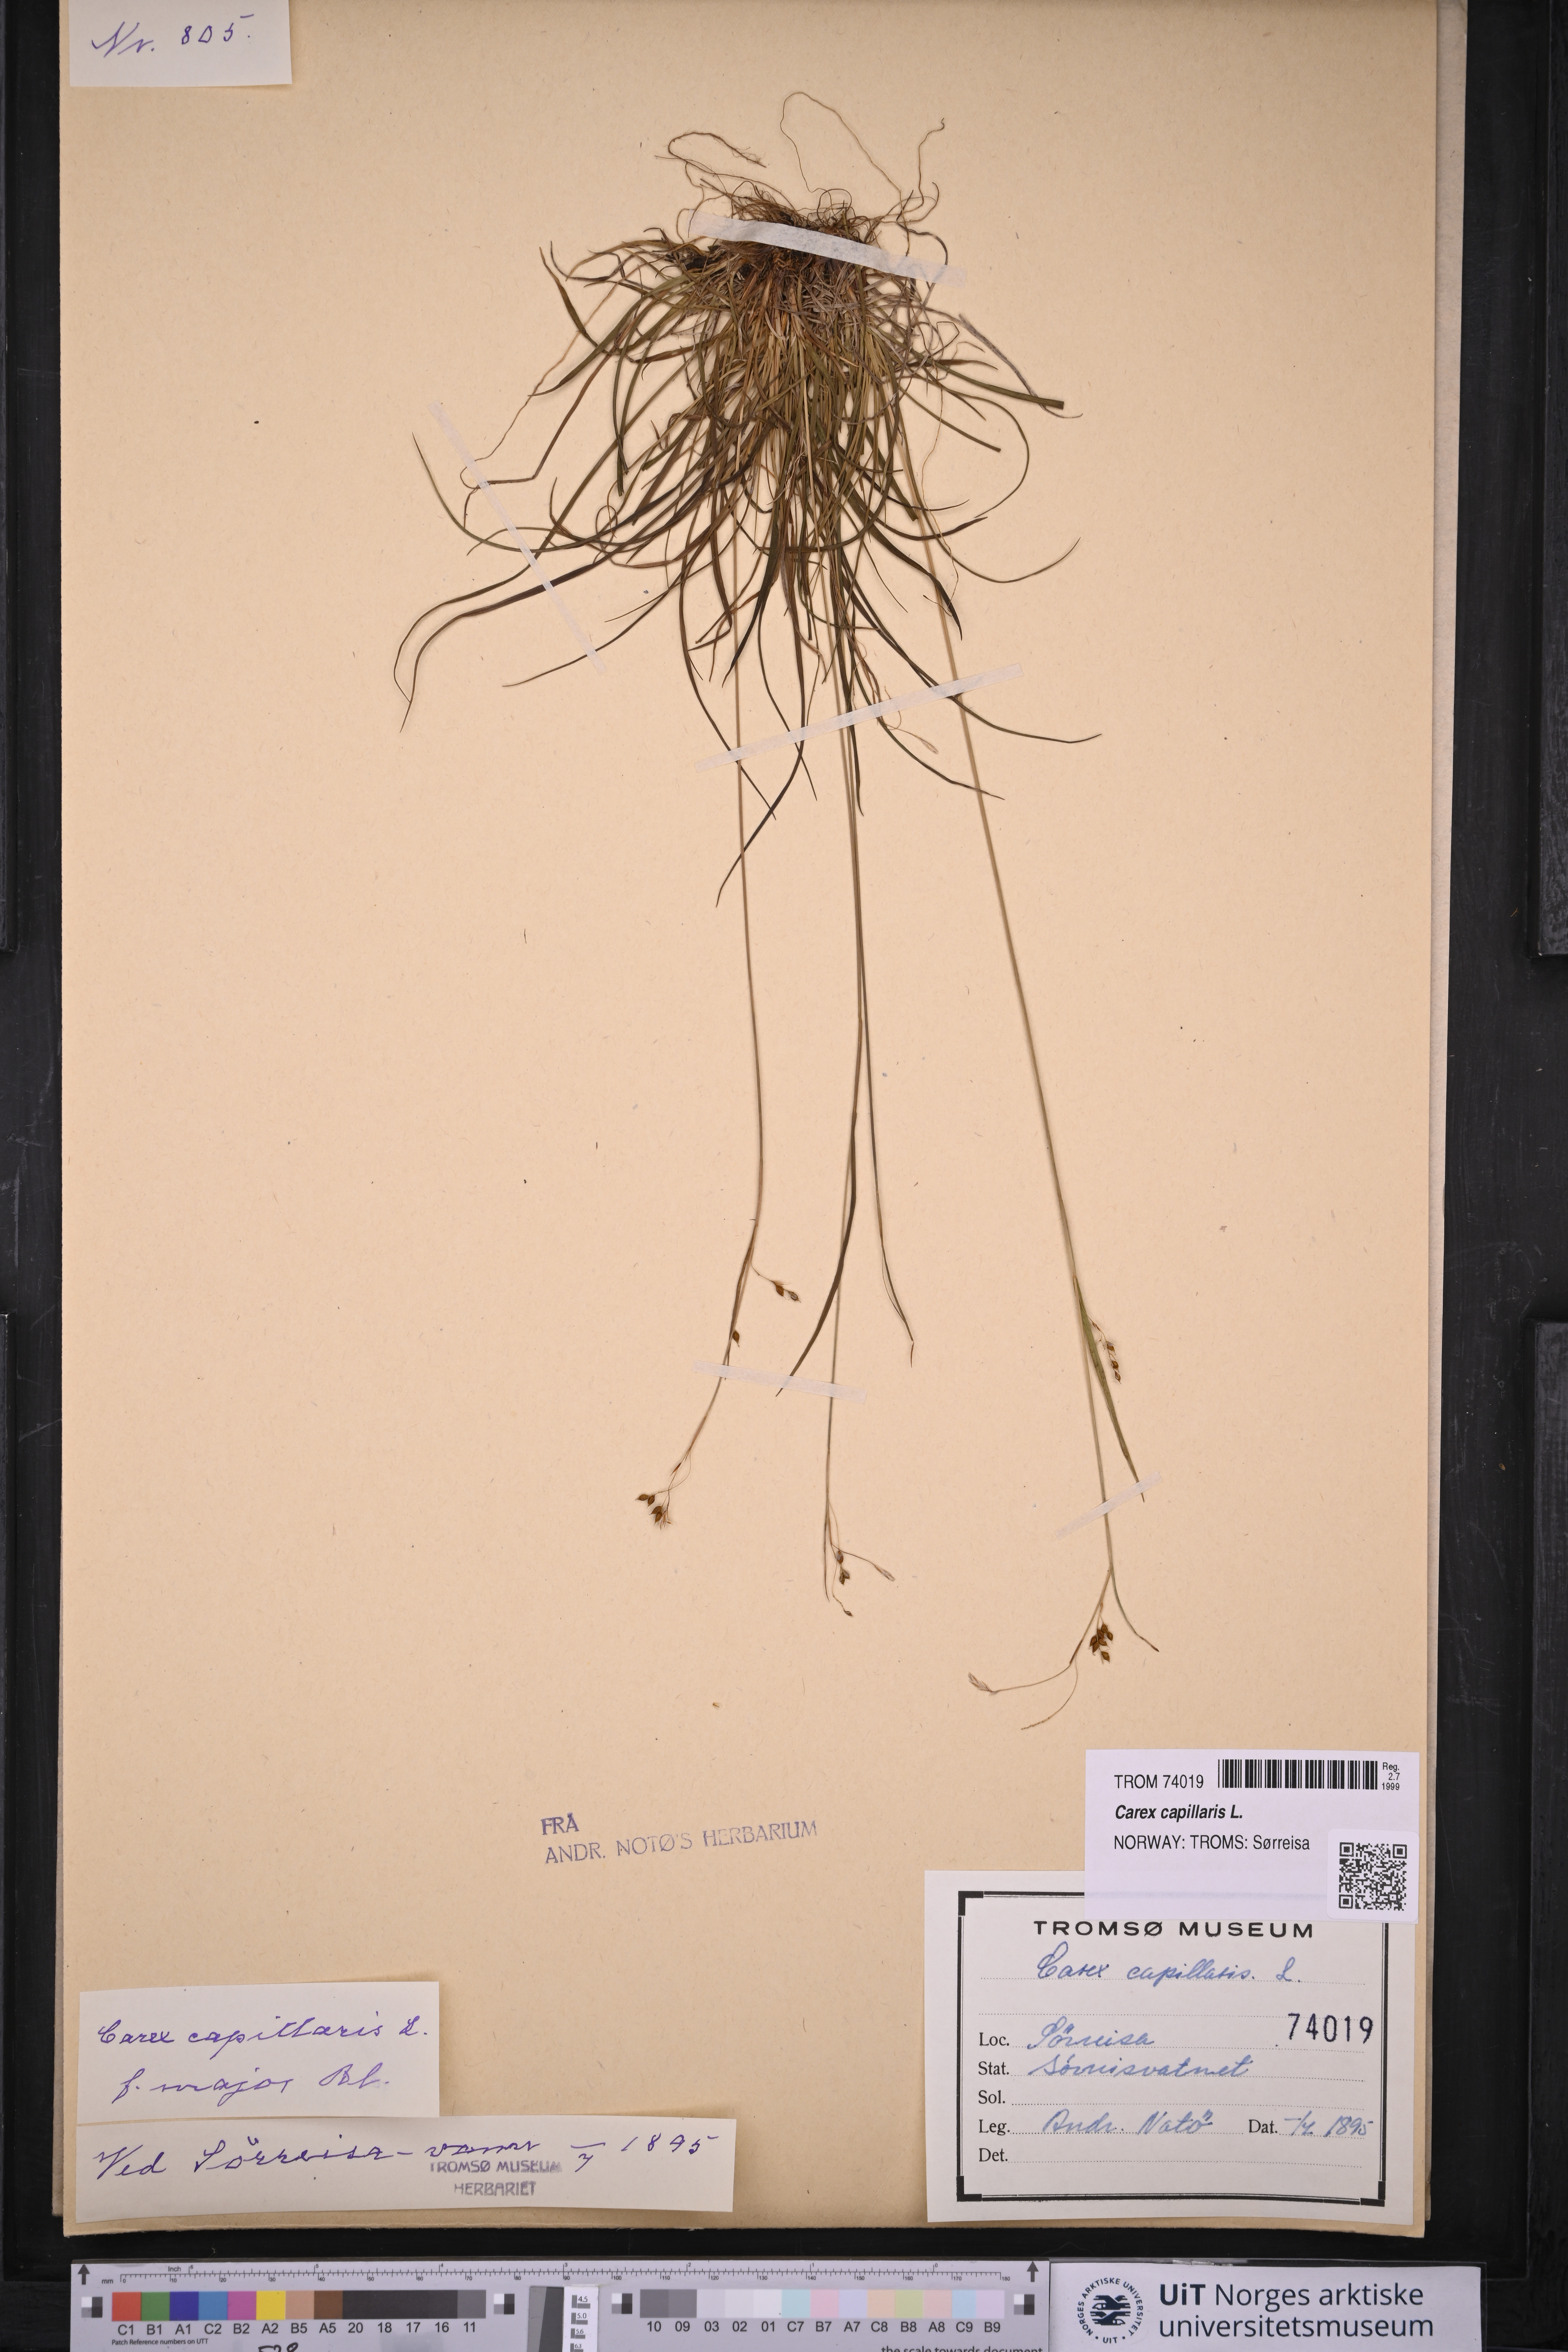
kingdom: Plantae
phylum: Tracheophyta
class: Liliopsida
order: Poales
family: Cyperaceae
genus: Carex
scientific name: Carex capillaris
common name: Hair sedge
